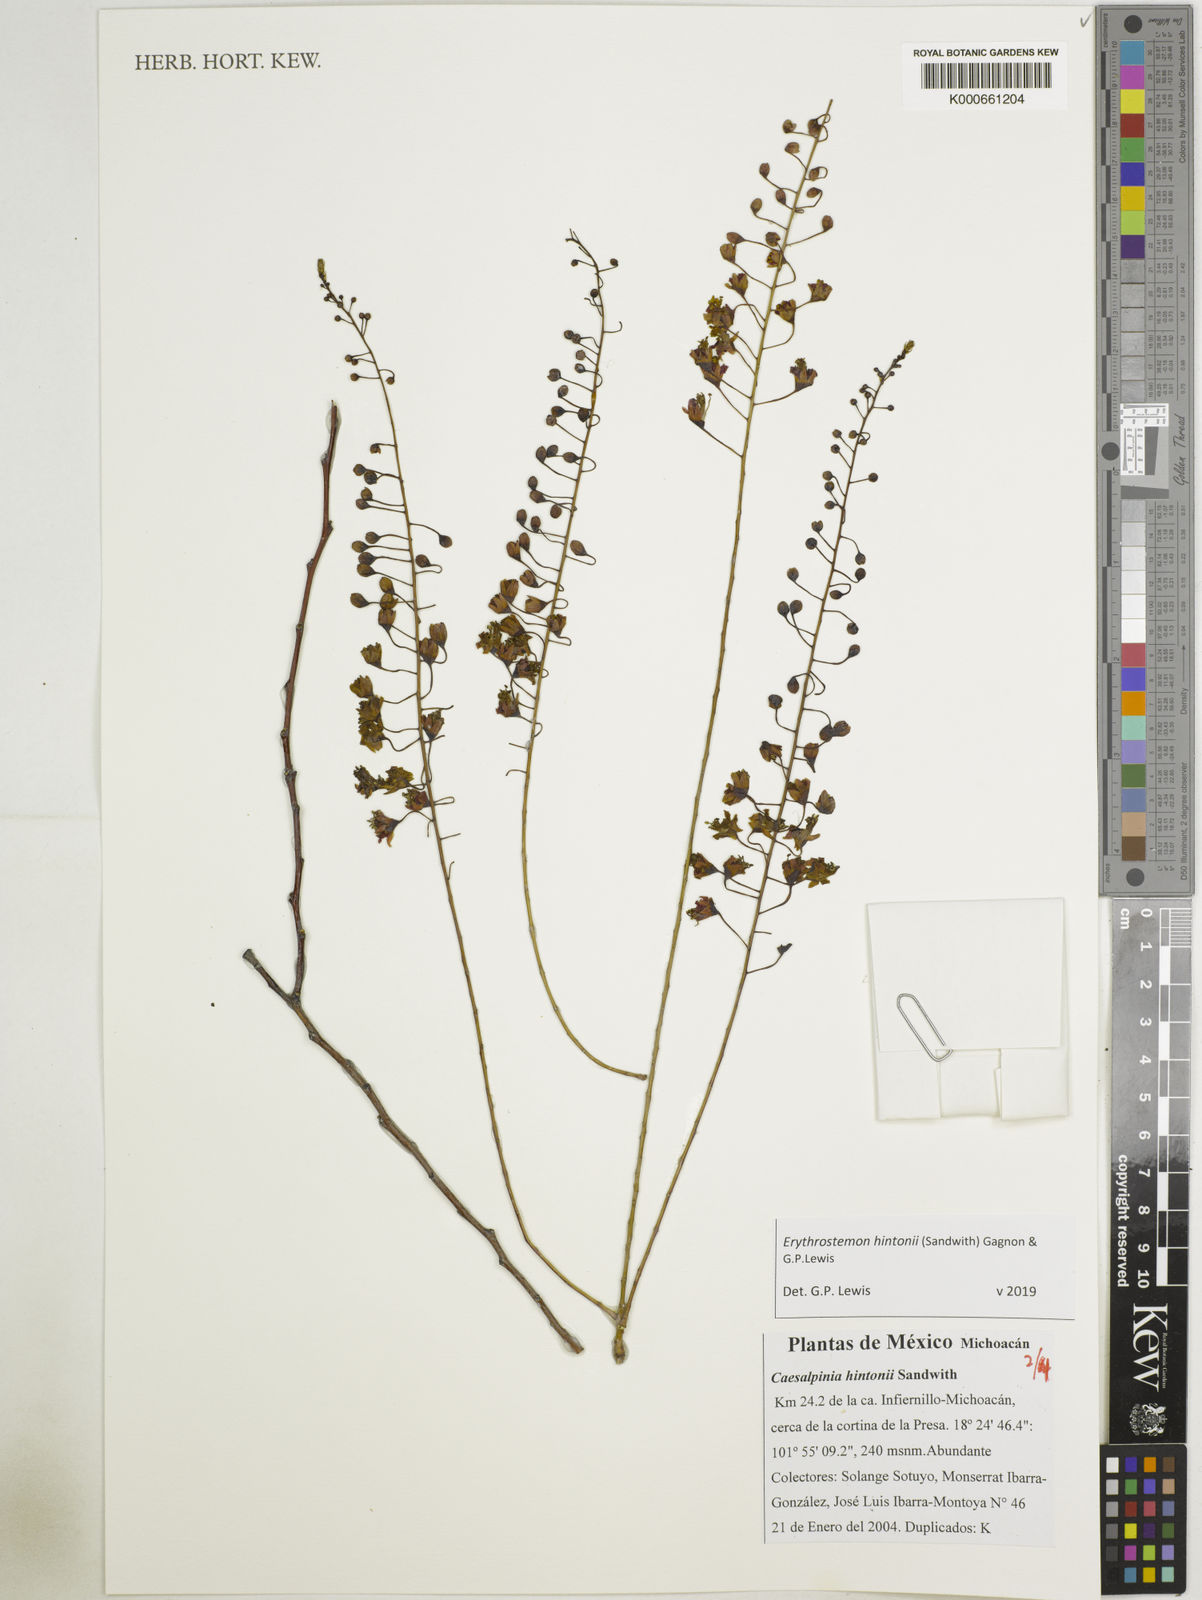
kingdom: Plantae
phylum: Tracheophyta
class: Magnoliopsida
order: Fabales
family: Fabaceae
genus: Erythrostemon
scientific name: Erythrostemon hintonii
